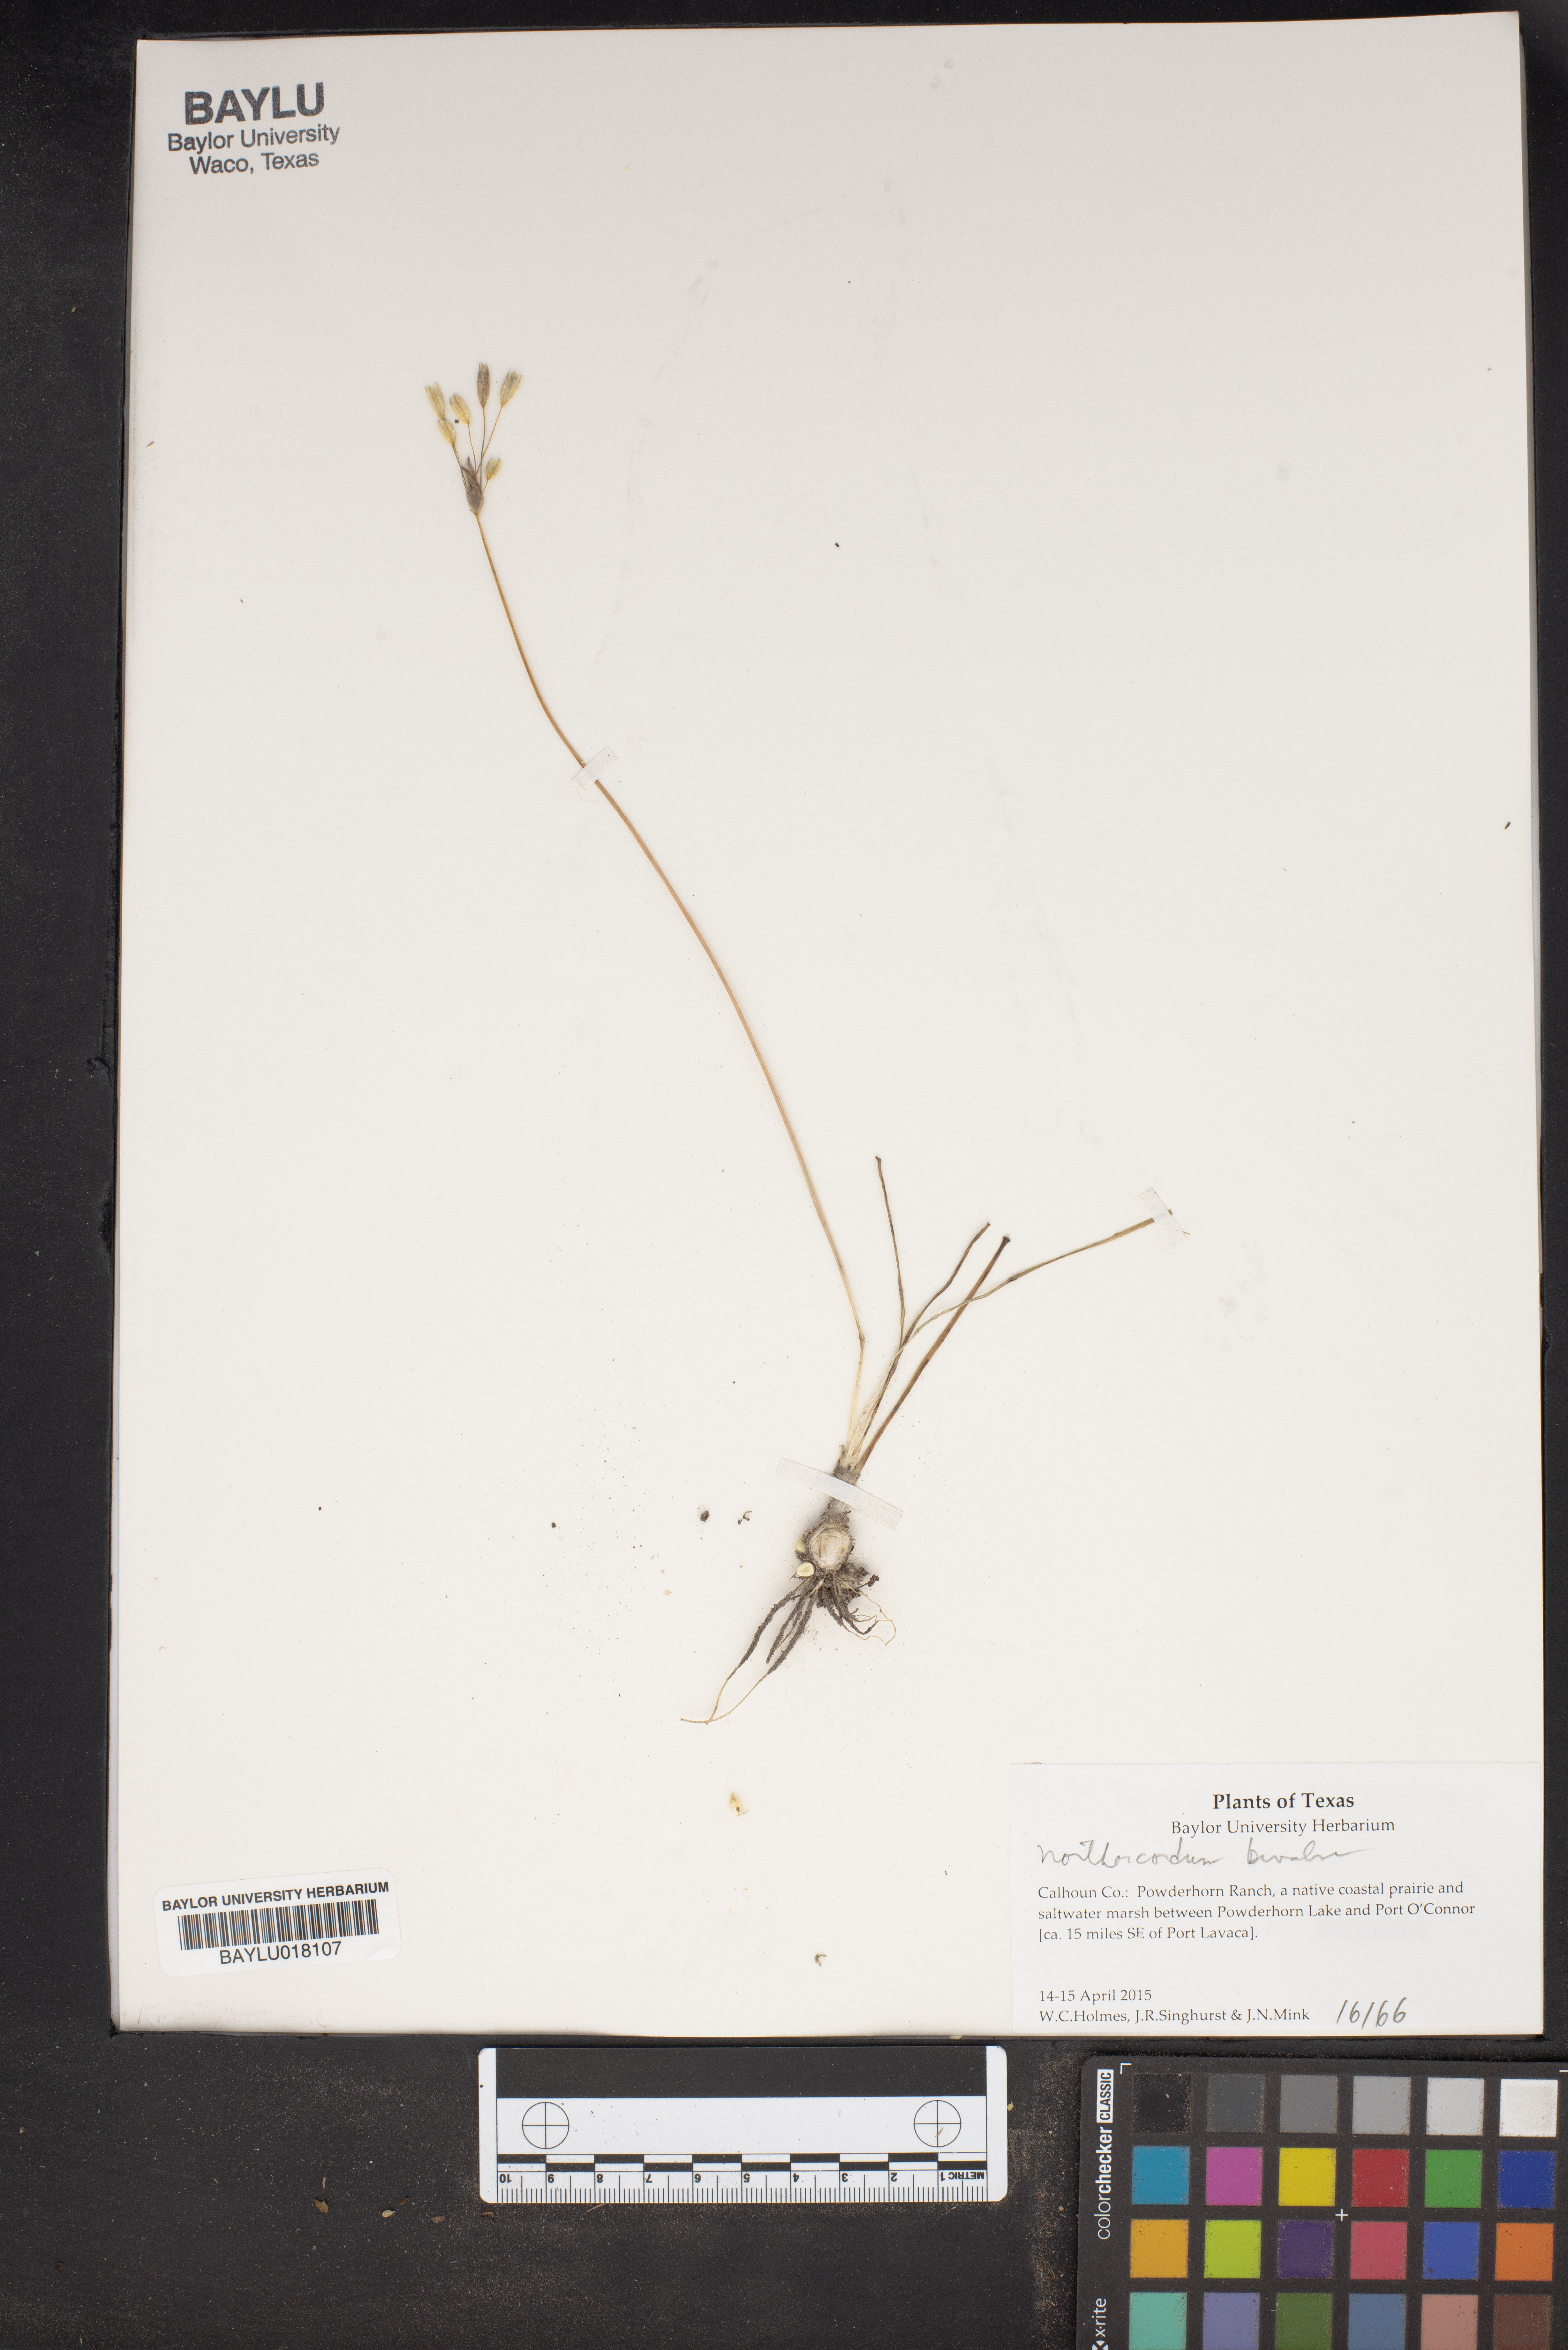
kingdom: Plantae
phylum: Tracheophyta
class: Liliopsida
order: Asparagales
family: Amaryllidaceae
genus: Nothoscordum
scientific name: Nothoscordum bivalve
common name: Crow-poison
